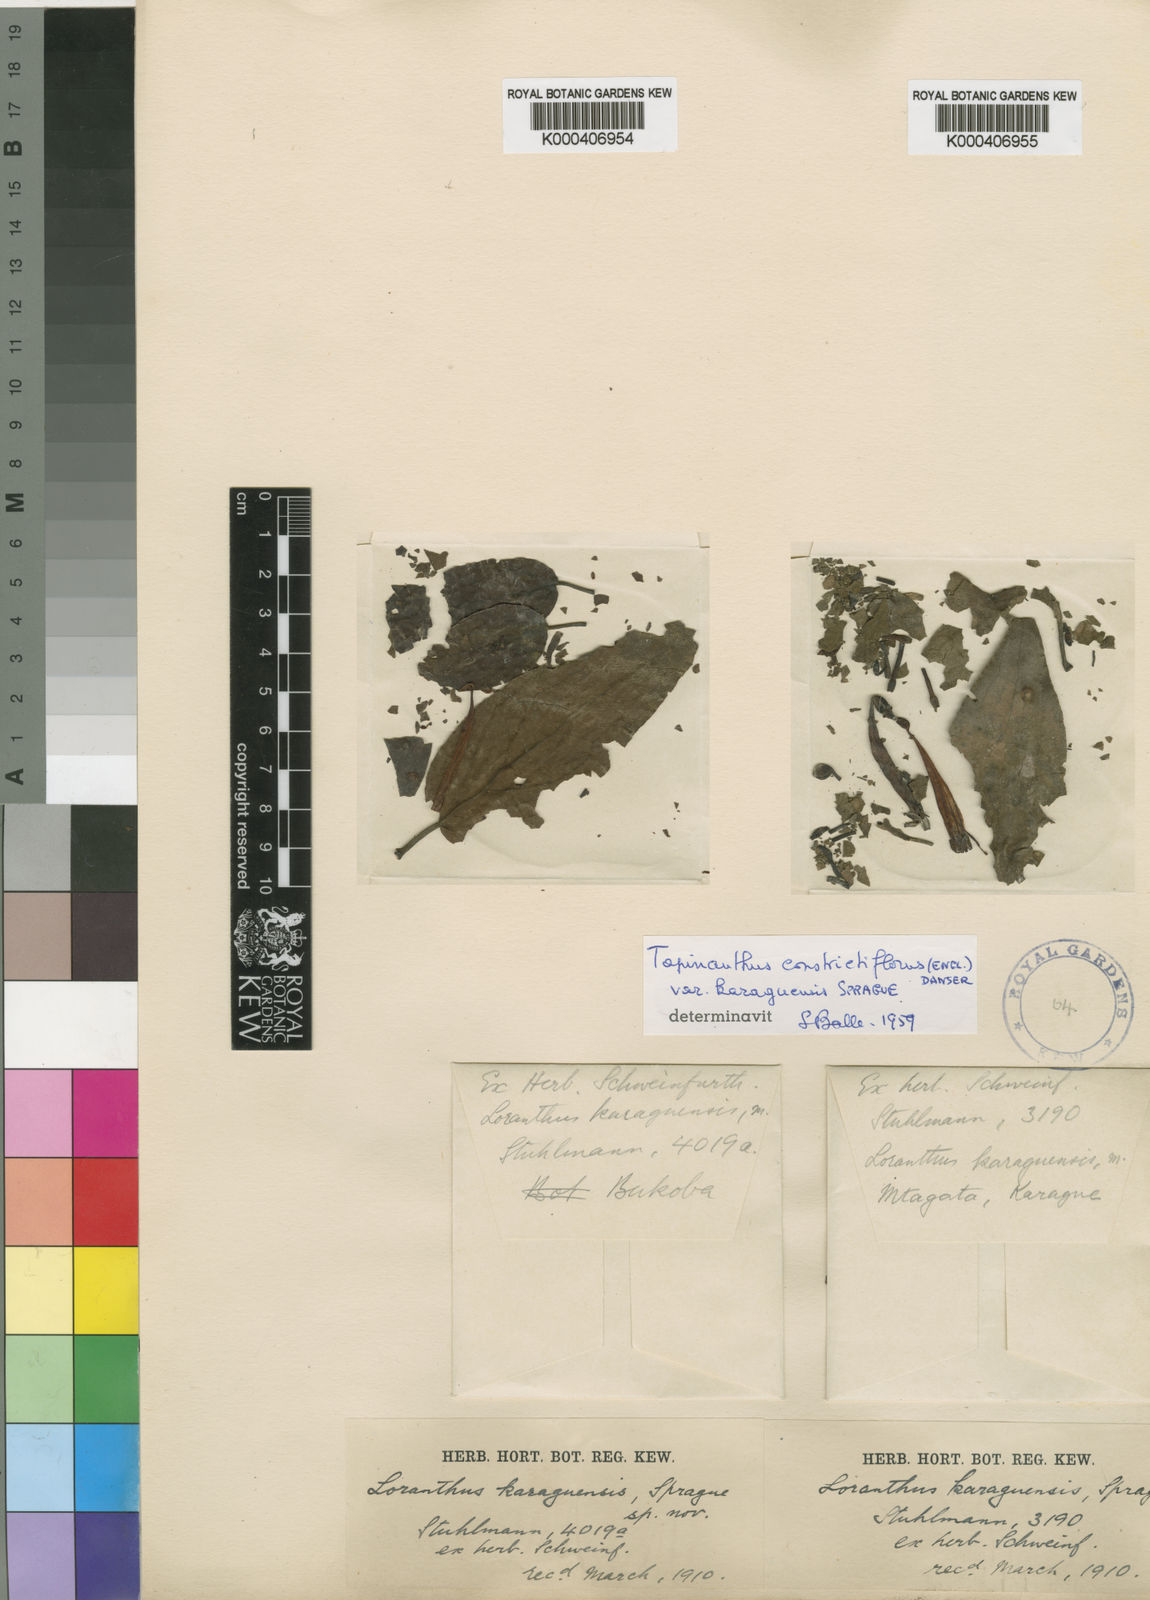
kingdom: Plantae
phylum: Tracheophyta
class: Magnoliopsida
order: Santalales
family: Loranthaceae
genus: Tapinanthus
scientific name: Tapinanthus constrictiflorus
